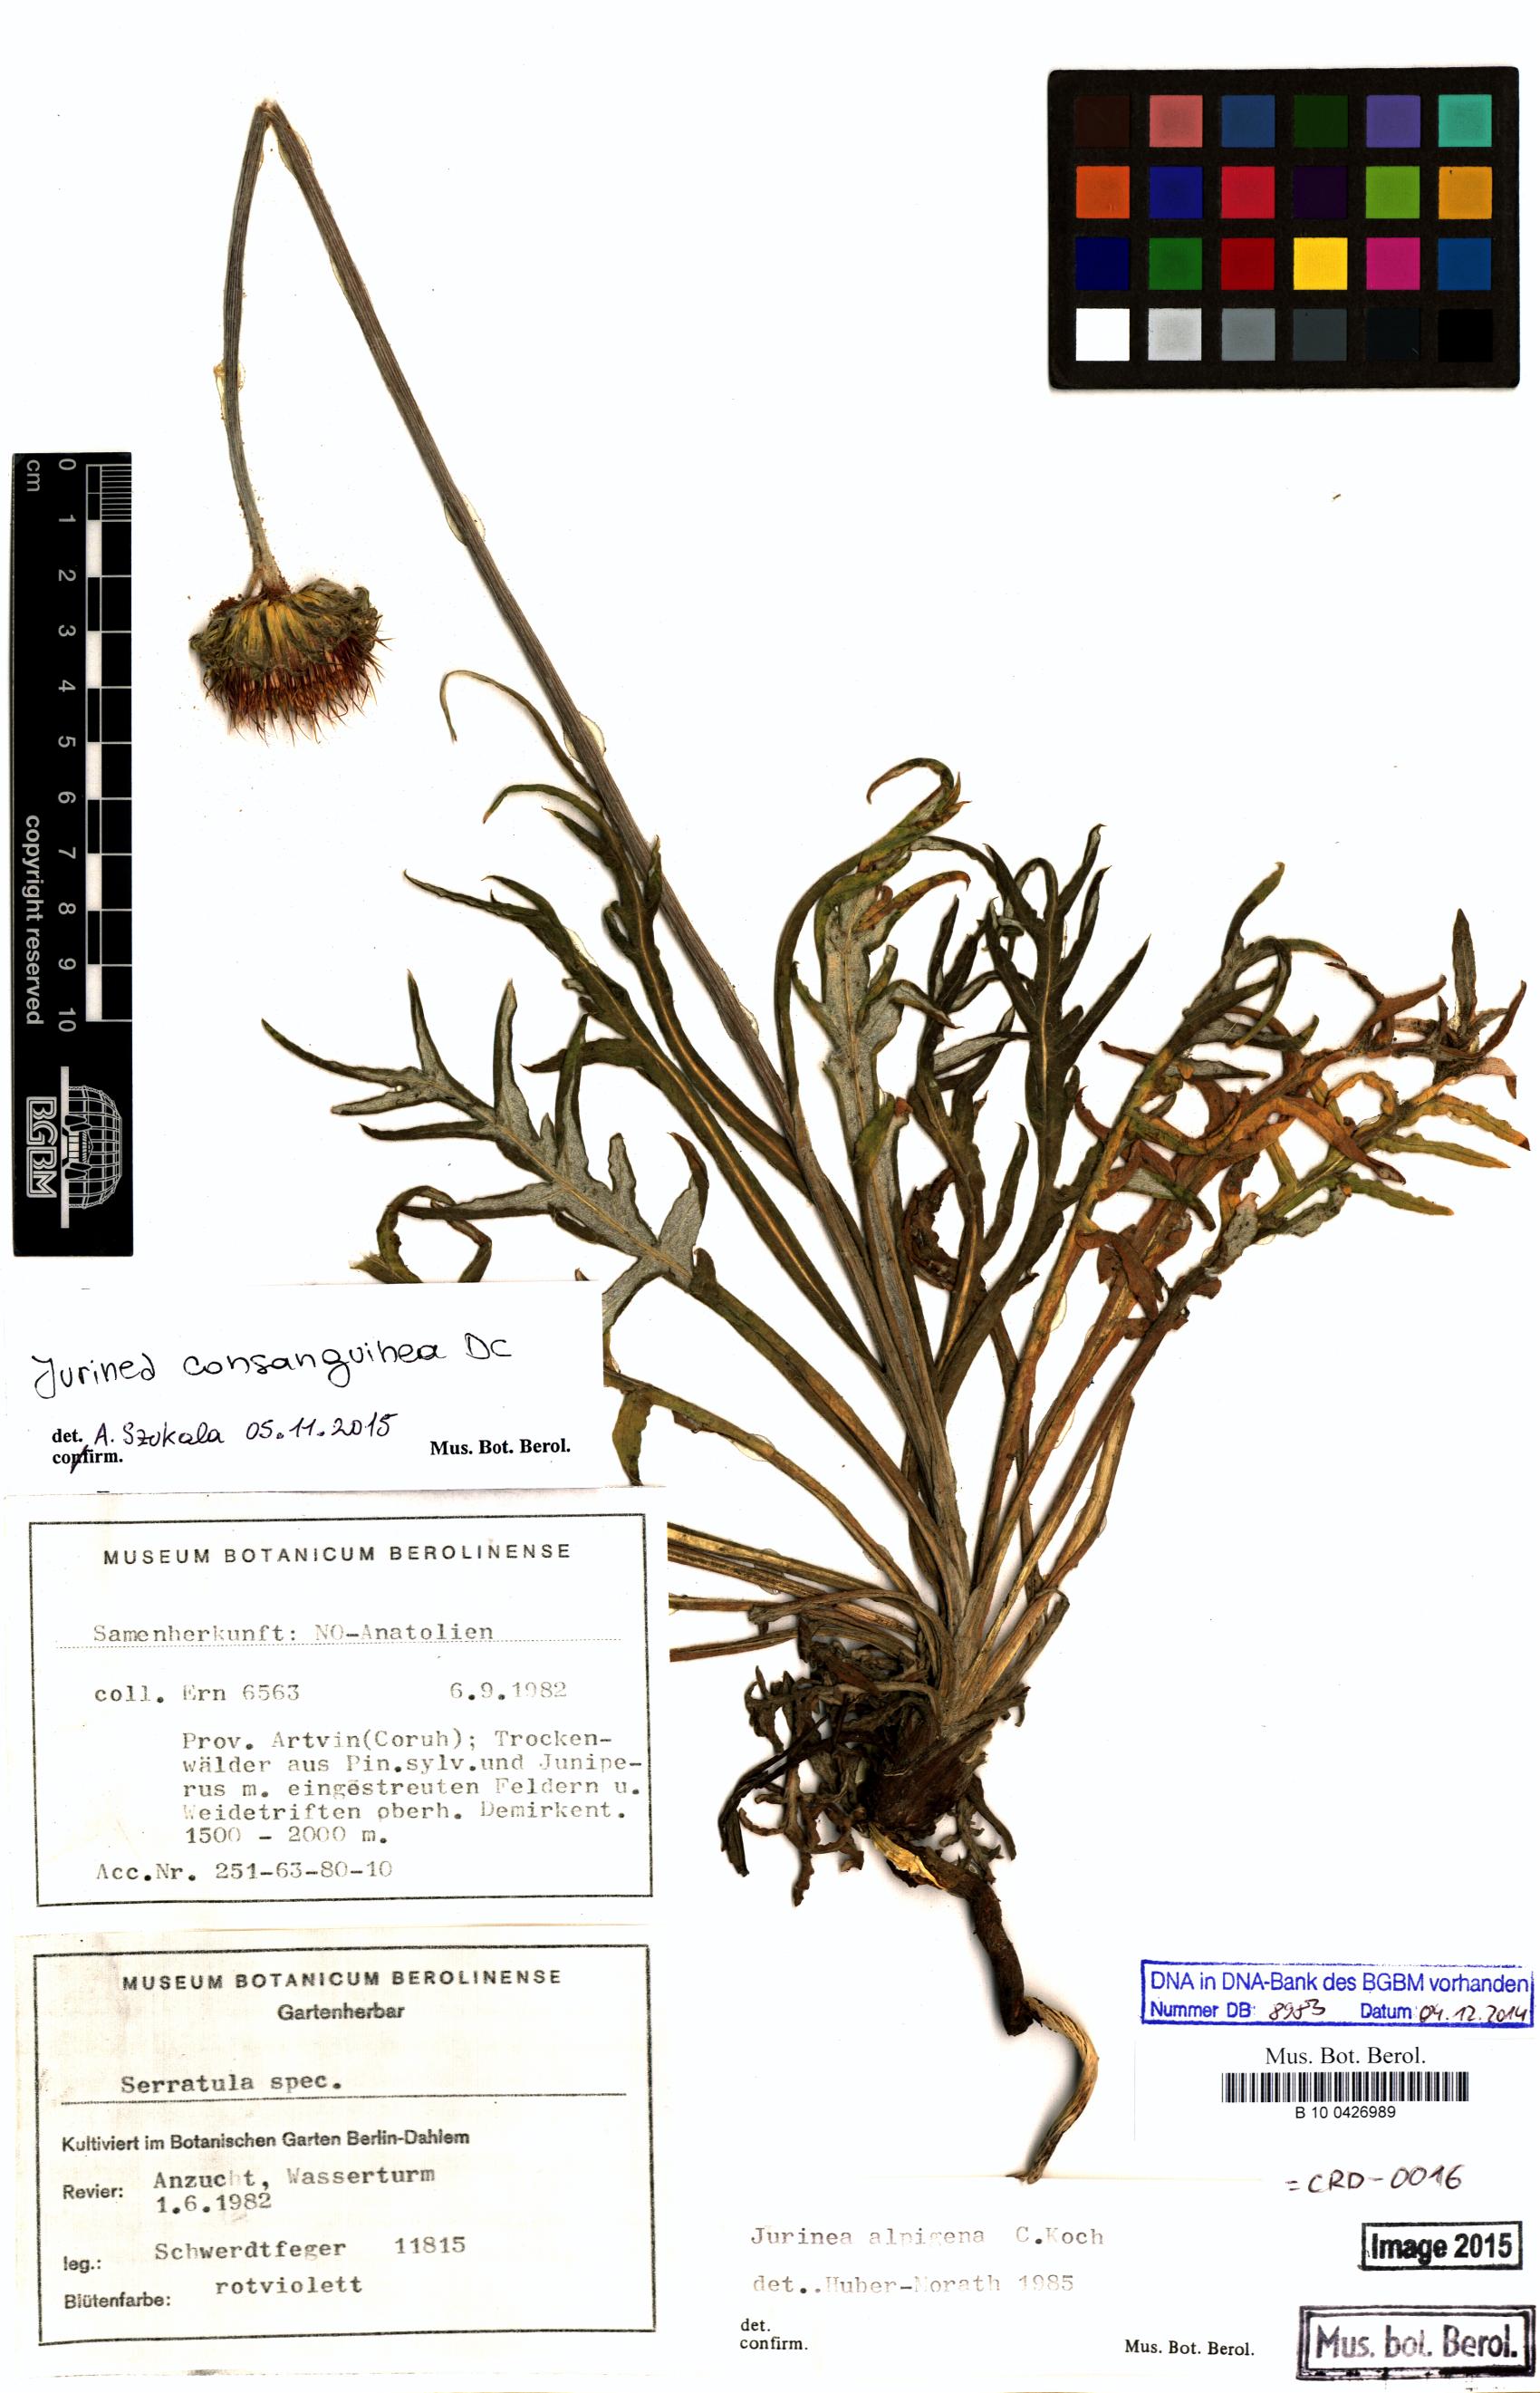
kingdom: Plantae
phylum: Tracheophyta
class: Magnoliopsida
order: Asterales
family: Asteraceae
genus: Jurinea
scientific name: Jurinea consanguinea
